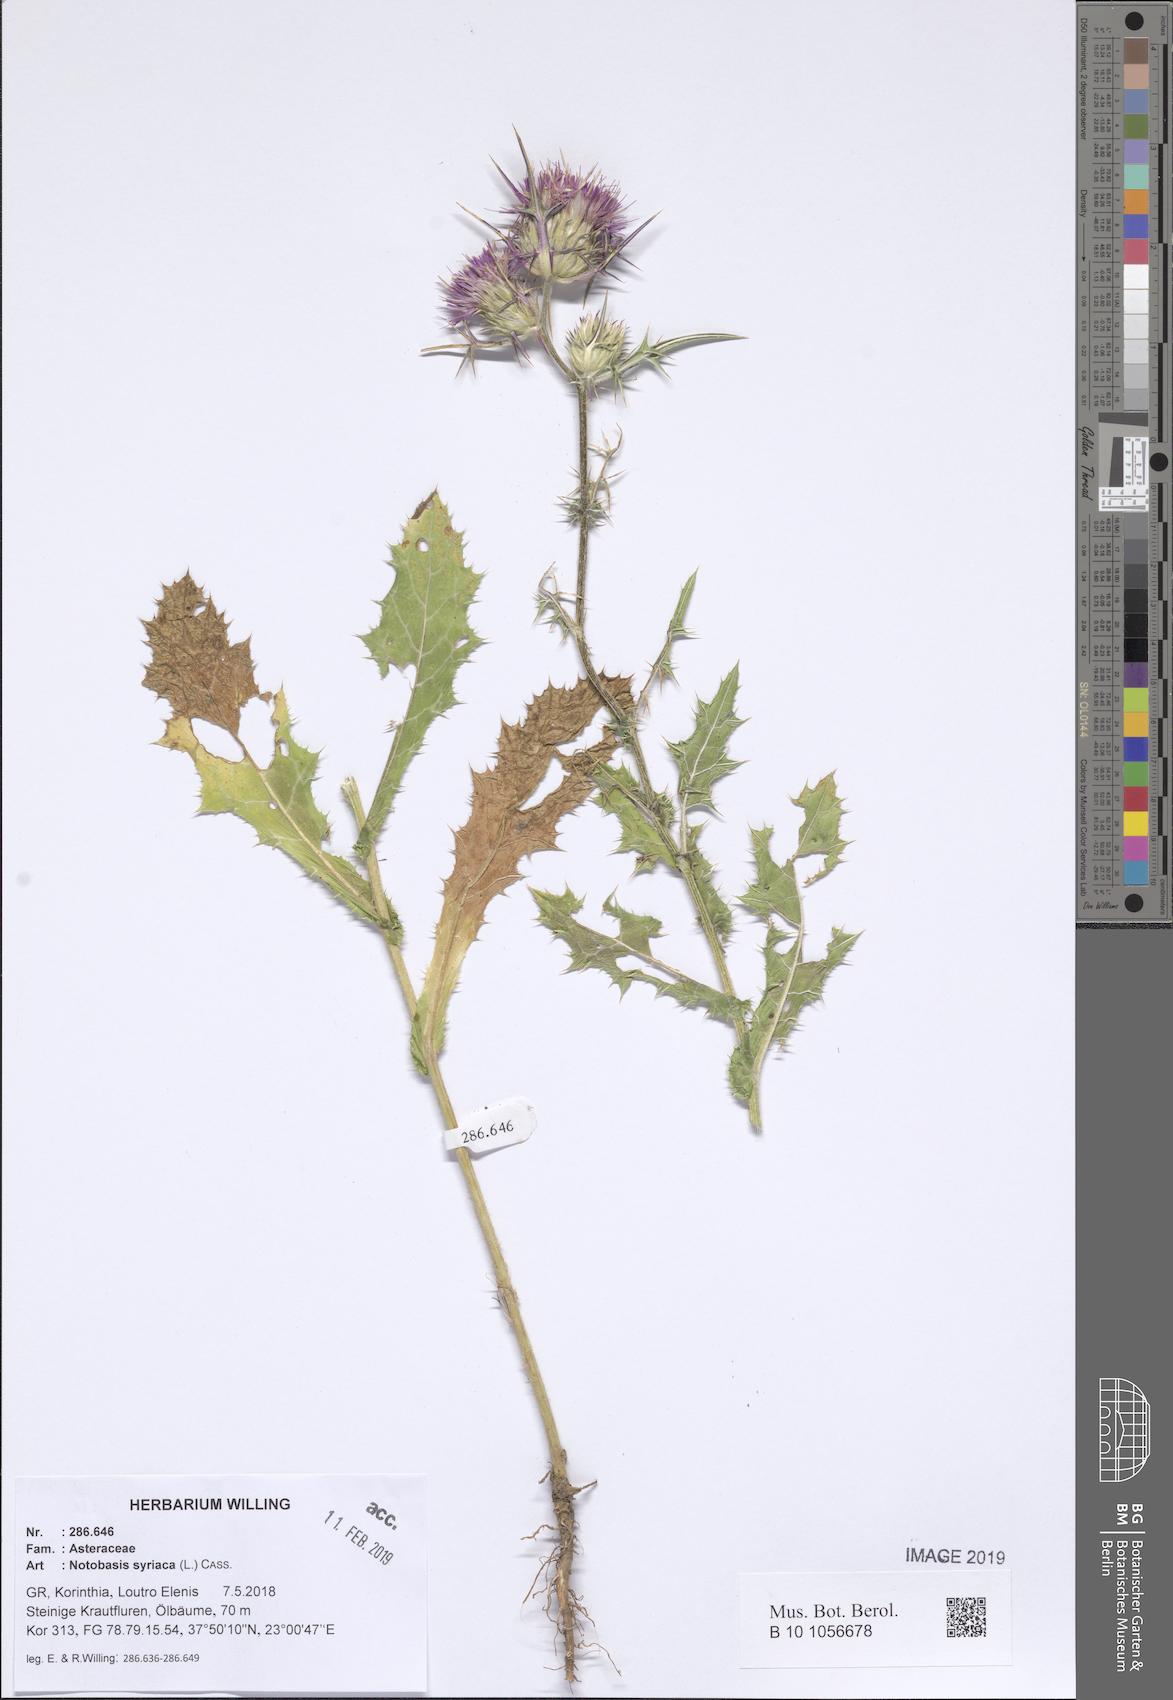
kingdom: Plantae
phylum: Tracheophyta
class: Magnoliopsida
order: Asterales
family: Asteraceae
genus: Notobasis
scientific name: Notobasis syriaca
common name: Syrian thistle
